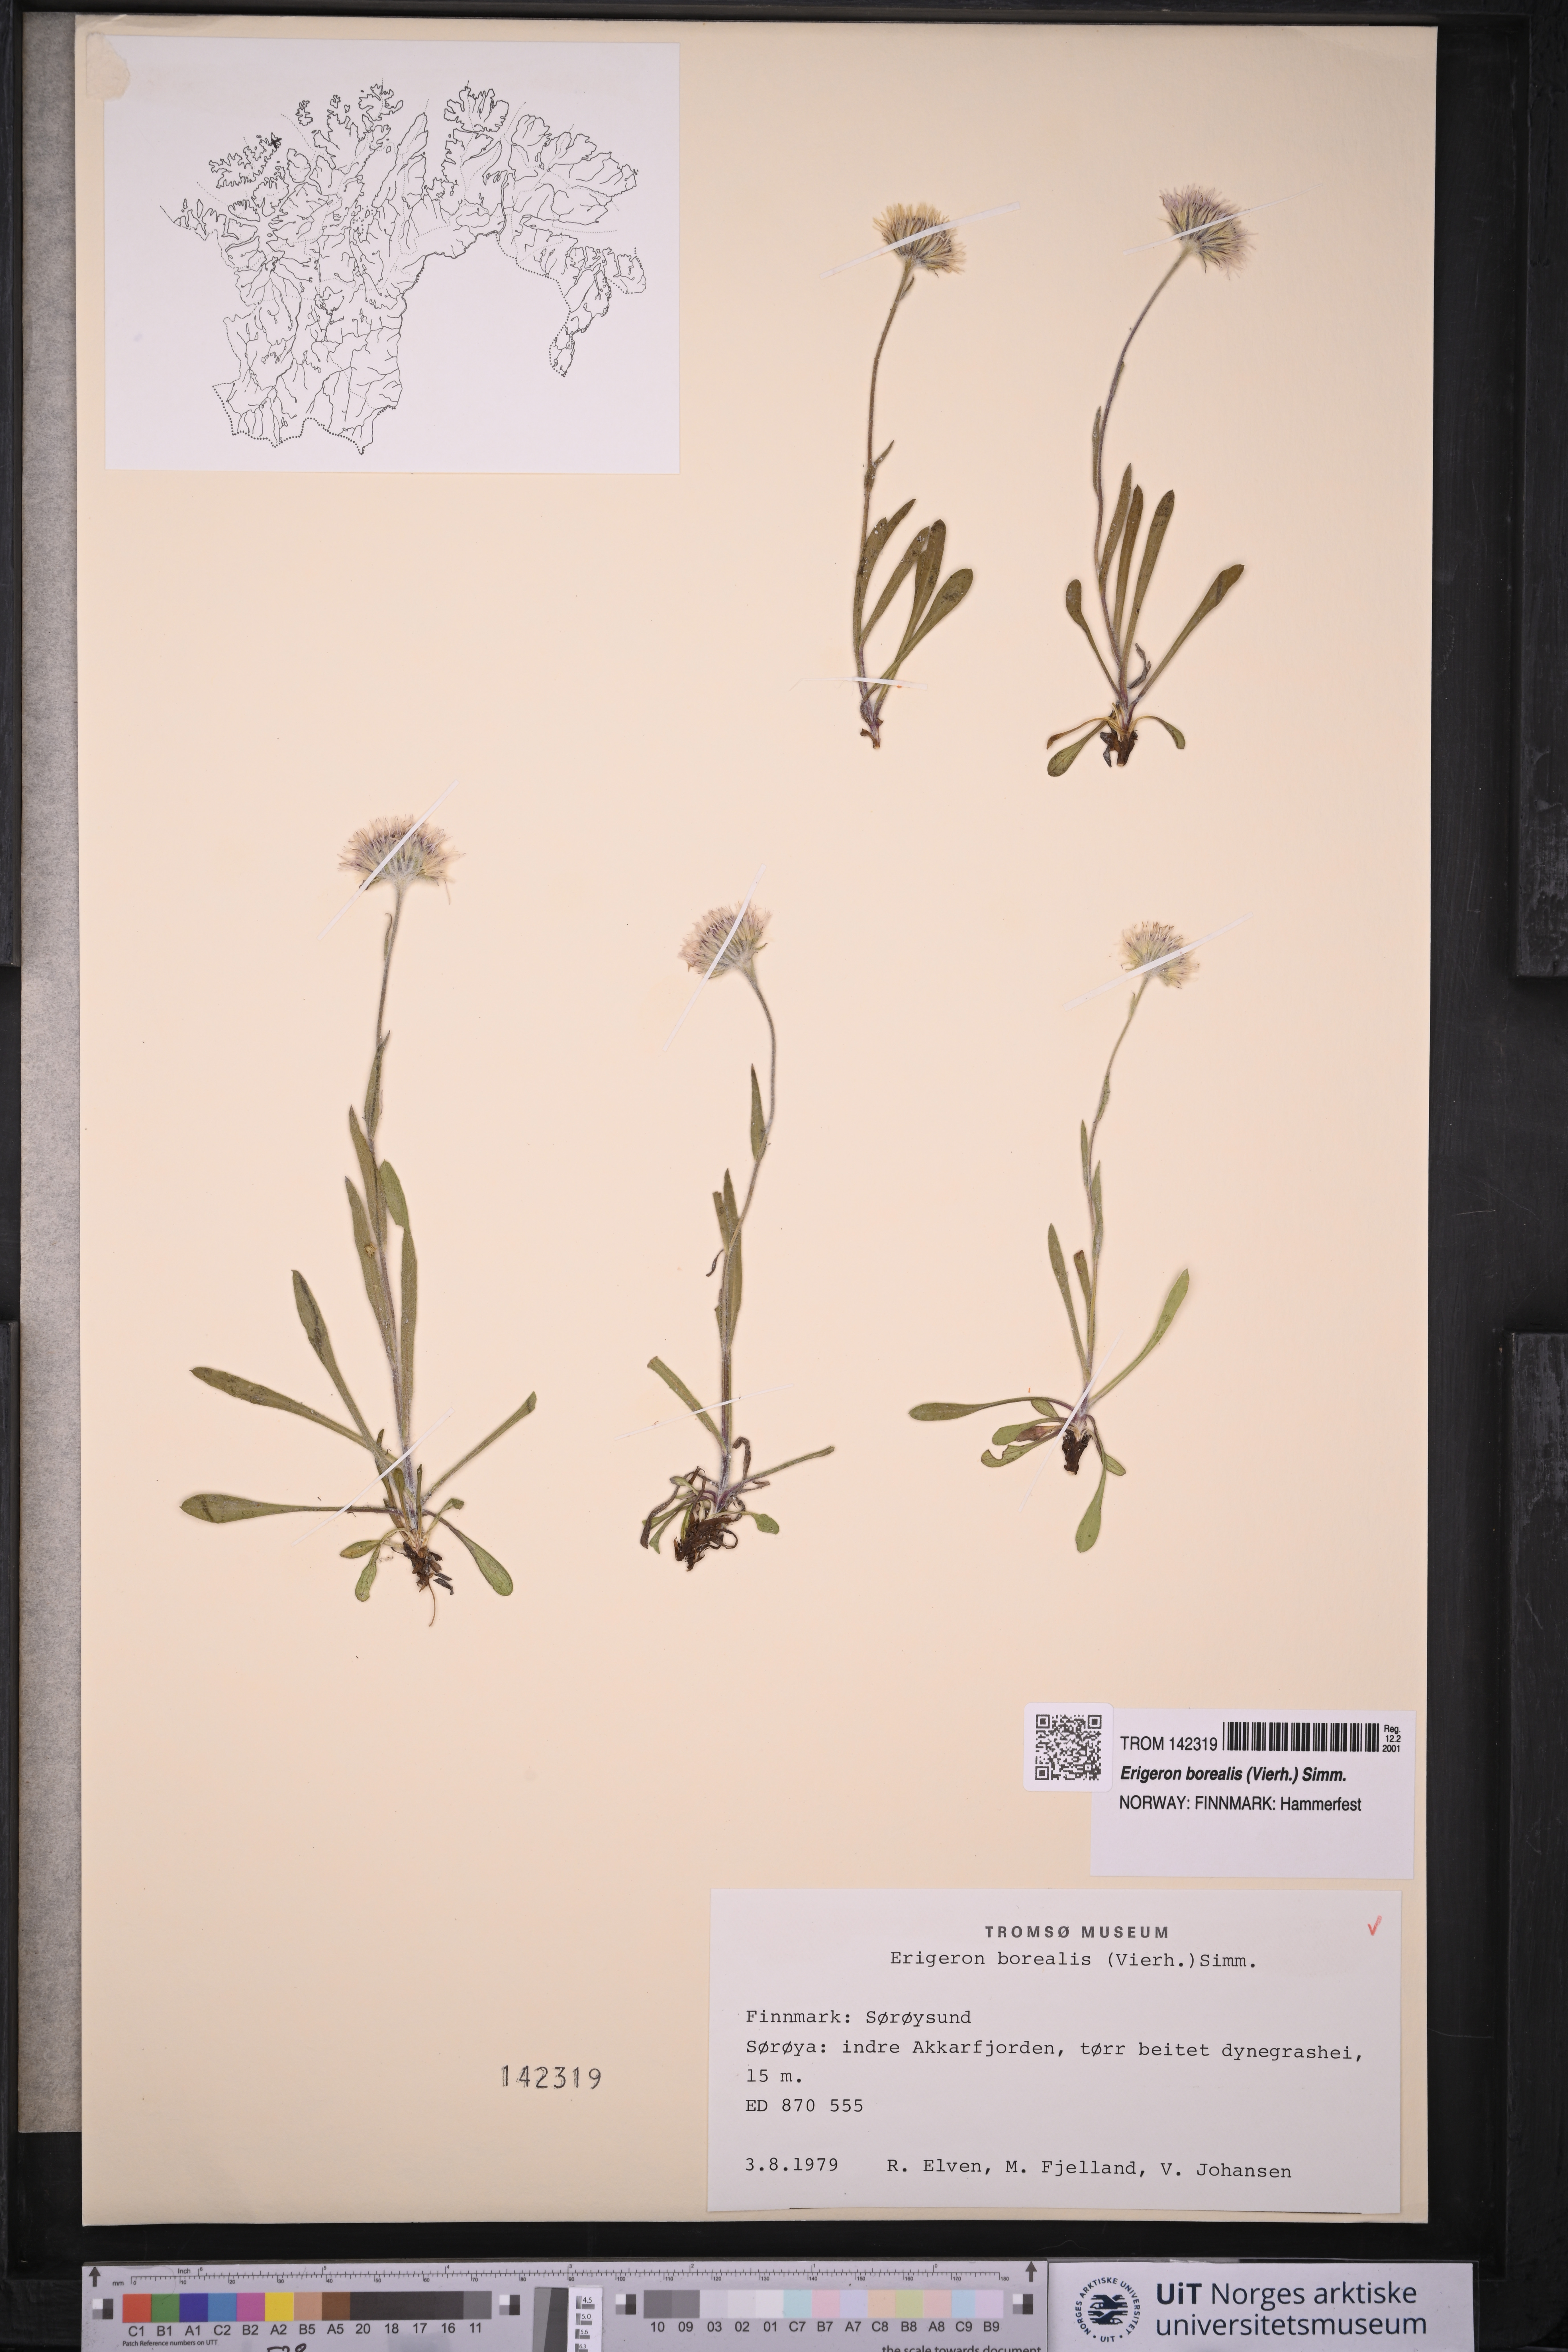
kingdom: Plantae
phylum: Tracheophyta
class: Magnoliopsida
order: Asterales
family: Asteraceae
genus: Erigeron
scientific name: Erigeron borealis
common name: Alpine fleabane
